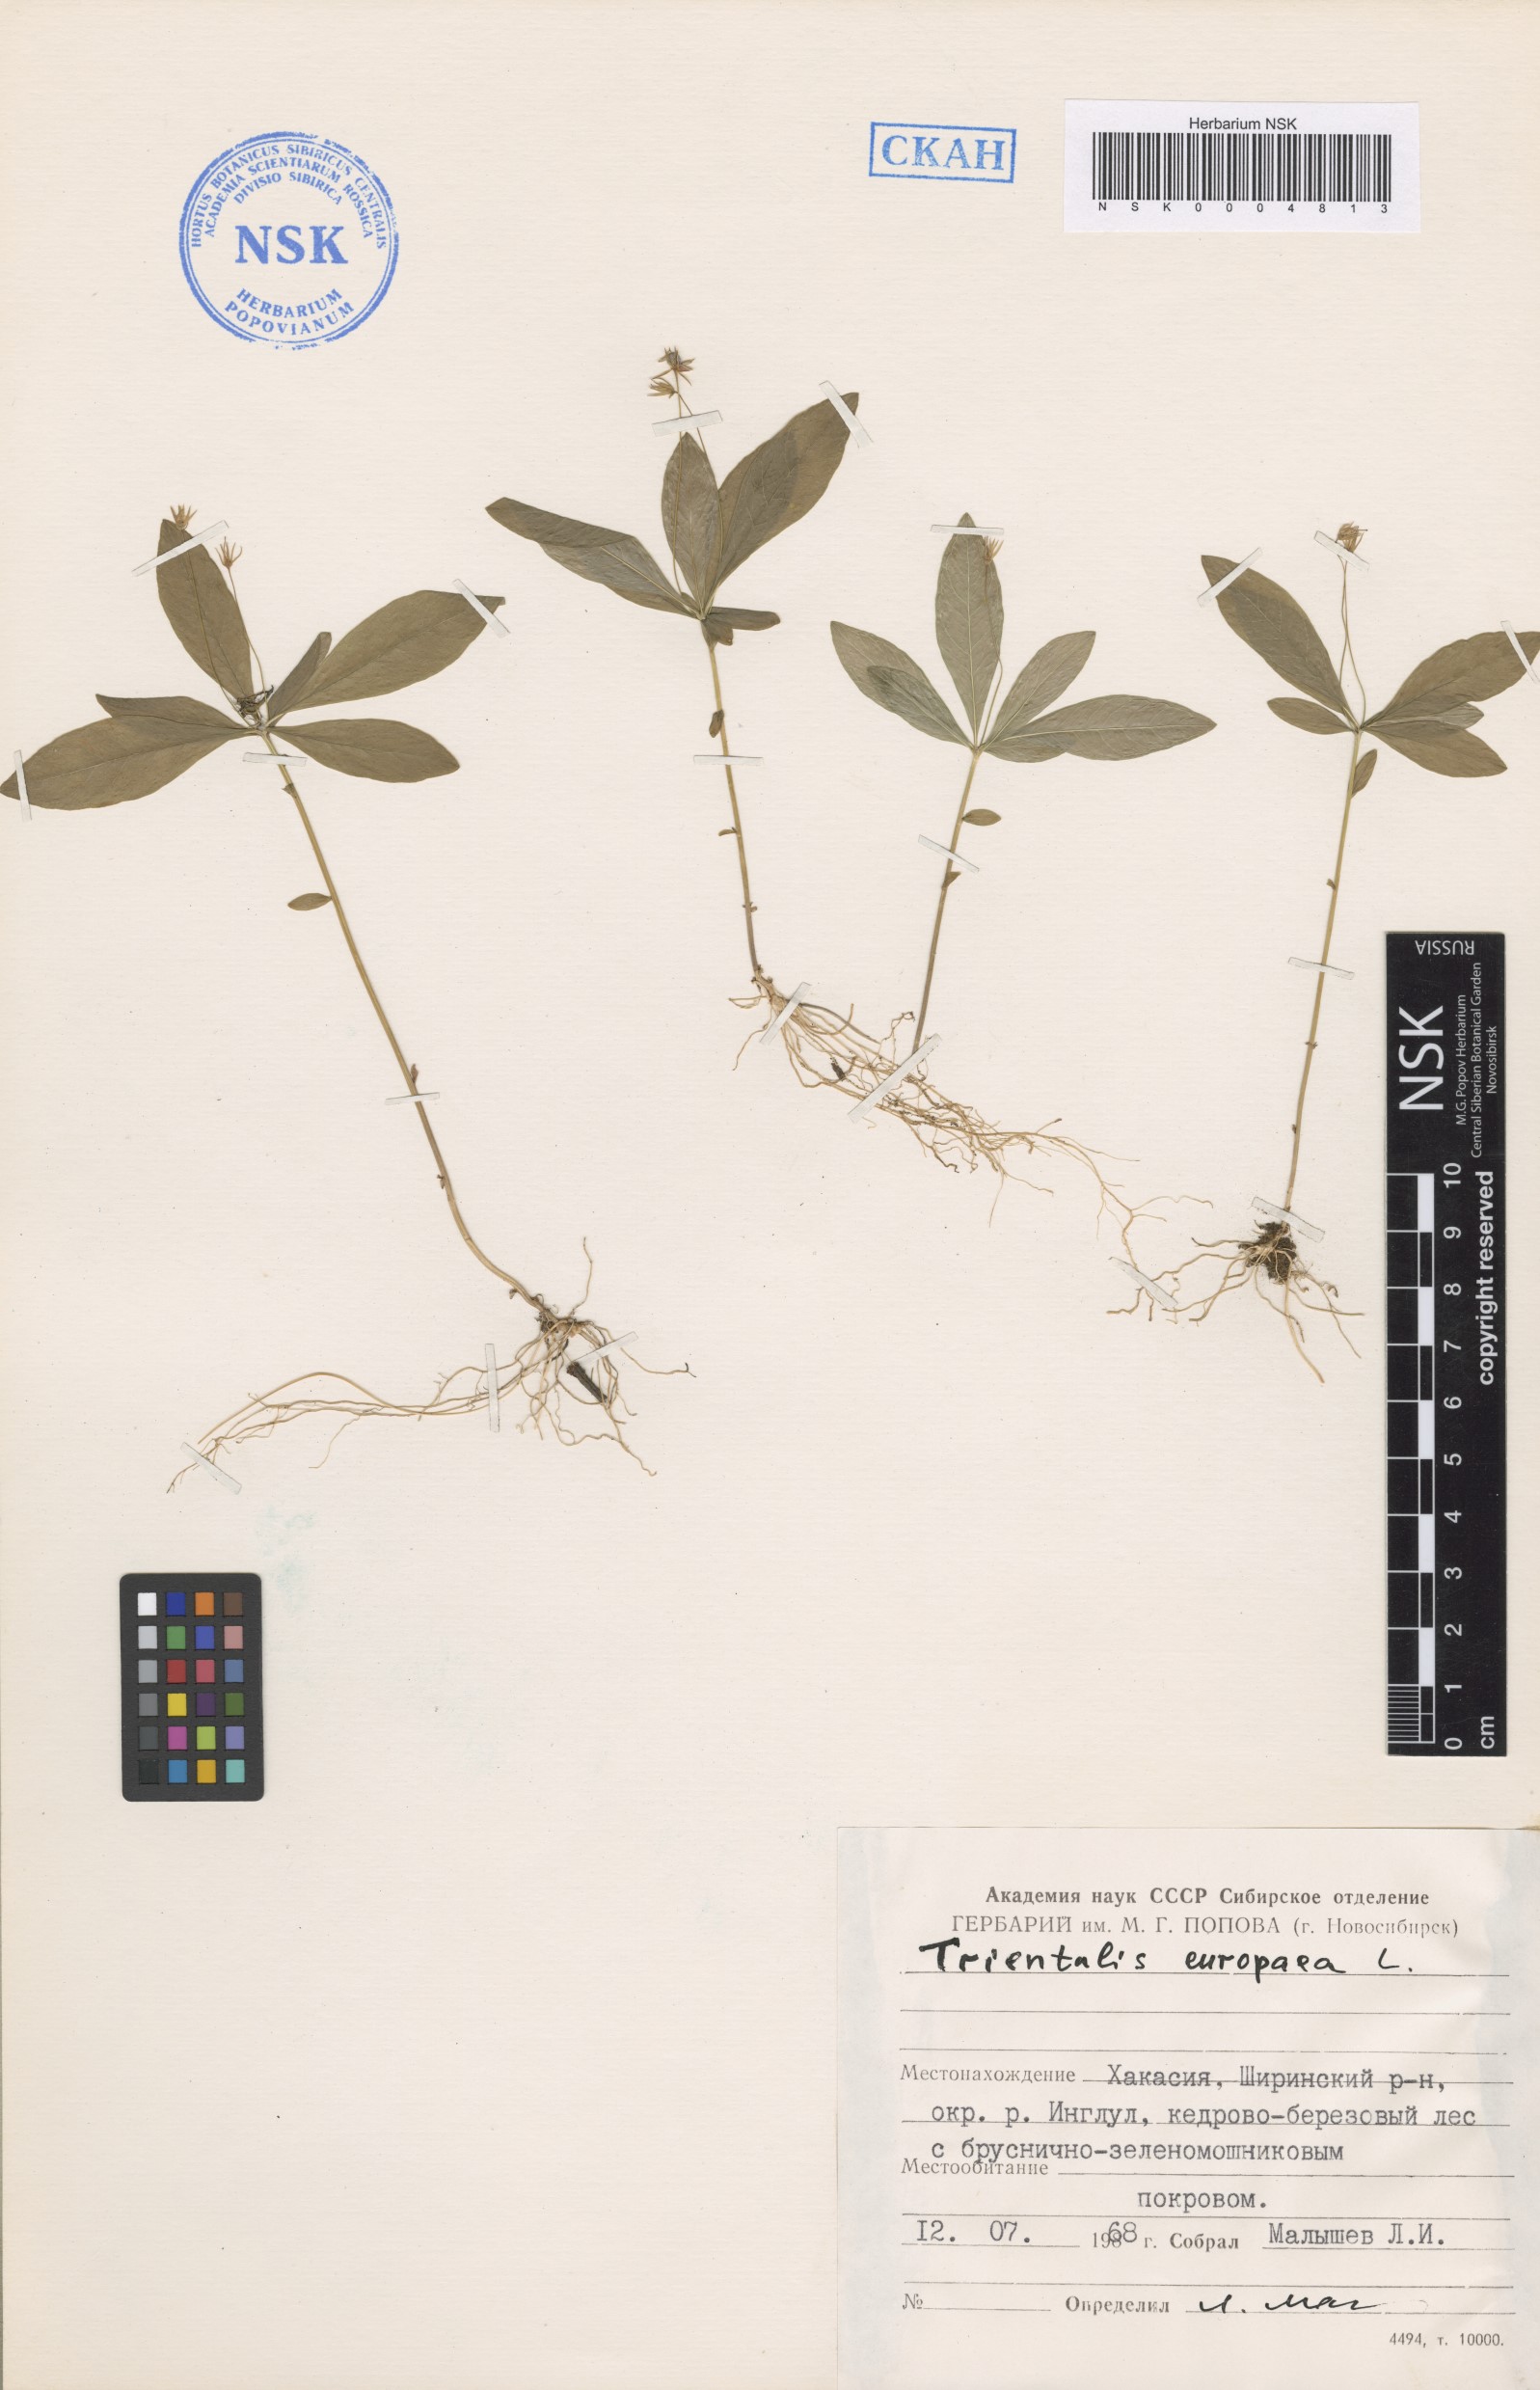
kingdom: Plantae
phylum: Tracheophyta
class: Magnoliopsida
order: Ericales
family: Primulaceae
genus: Lysimachia
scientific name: Lysimachia europaea
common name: Arctic starflower
